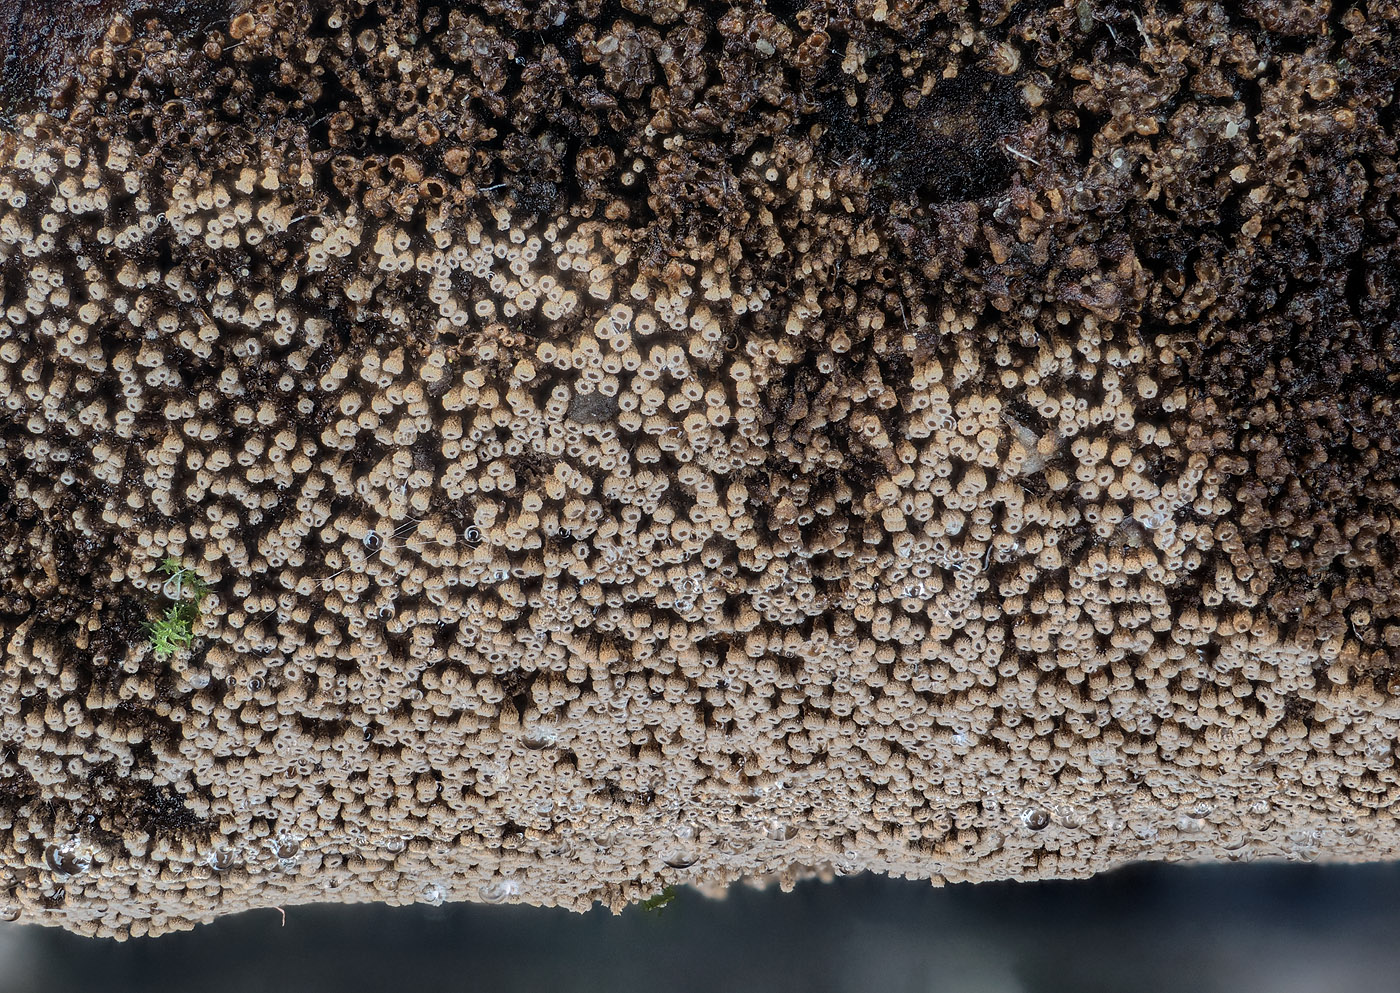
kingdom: Fungi
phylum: Basidiomycota
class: Agaricomycetes
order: Agaricales
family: Niaceae
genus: Merismodes
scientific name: Merismodes anomala
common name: almindelig læderskål
